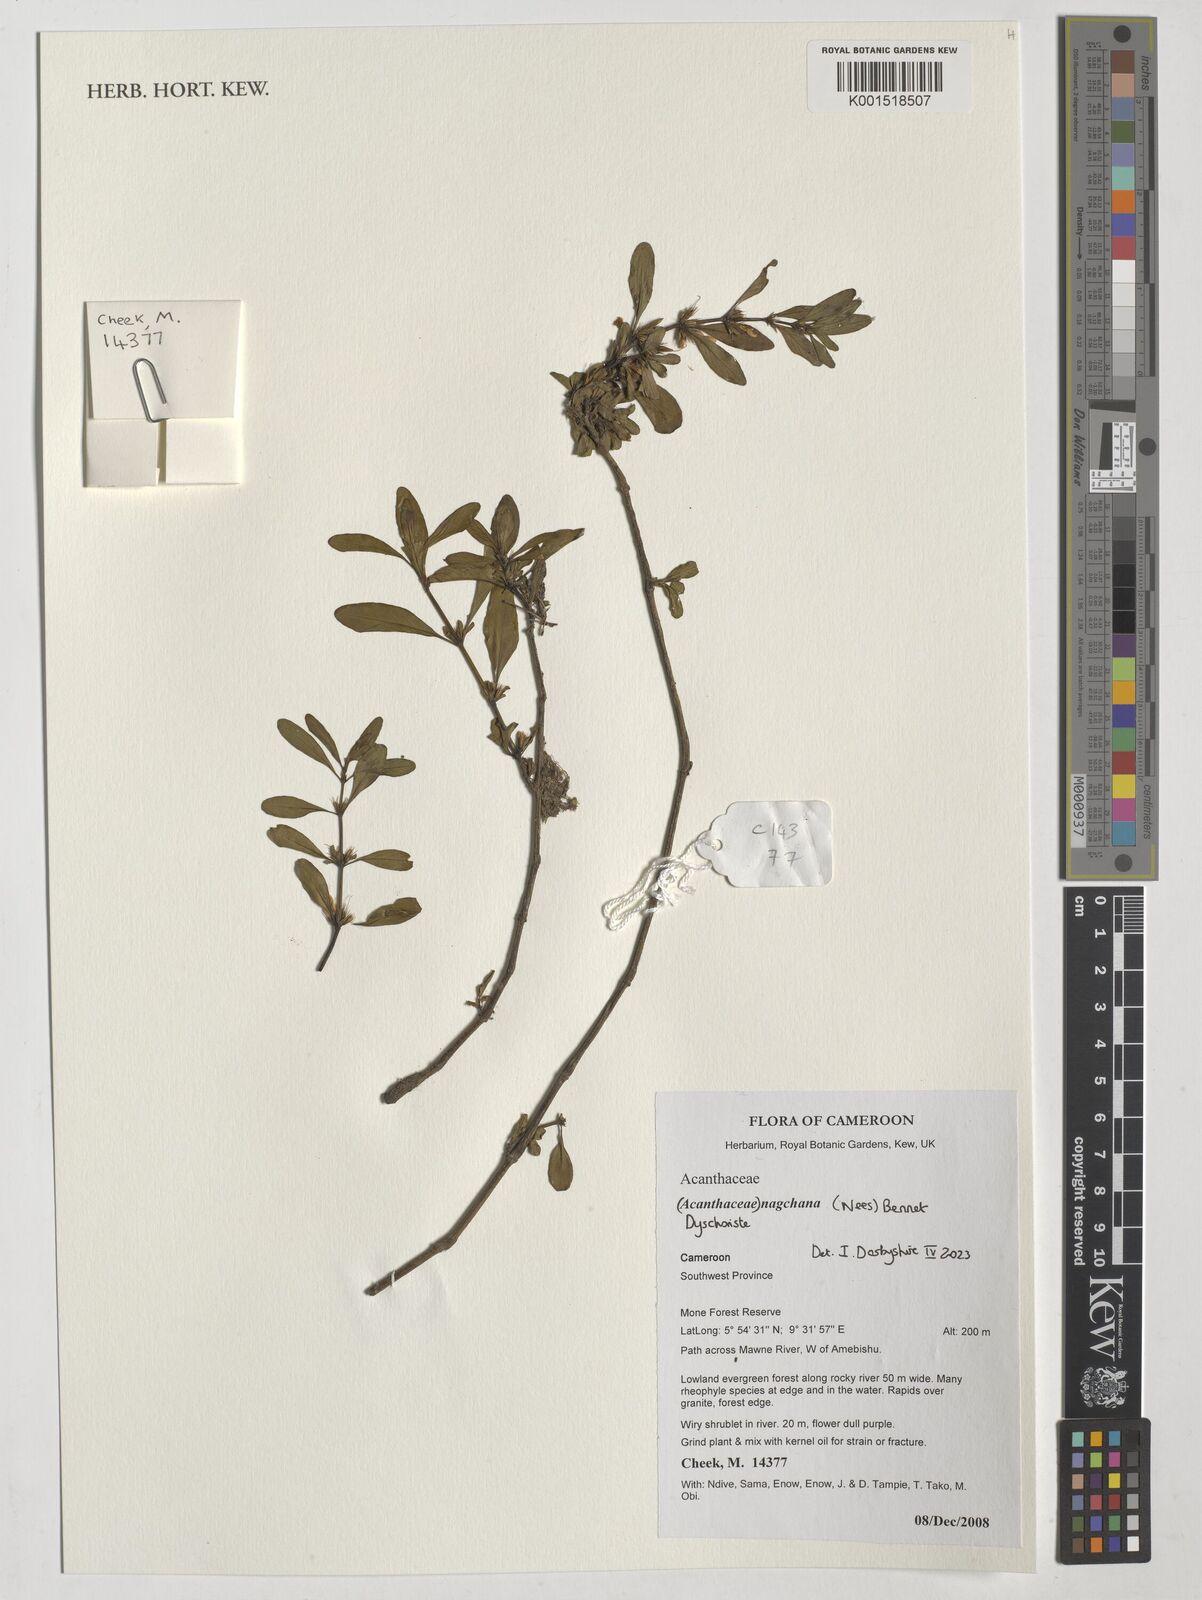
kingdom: Plantae
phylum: Tracheophyta
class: Magnoliopsida
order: Lamiales
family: Acanthaceae
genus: Dyschoriste
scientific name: Dyschoriste nagchana
